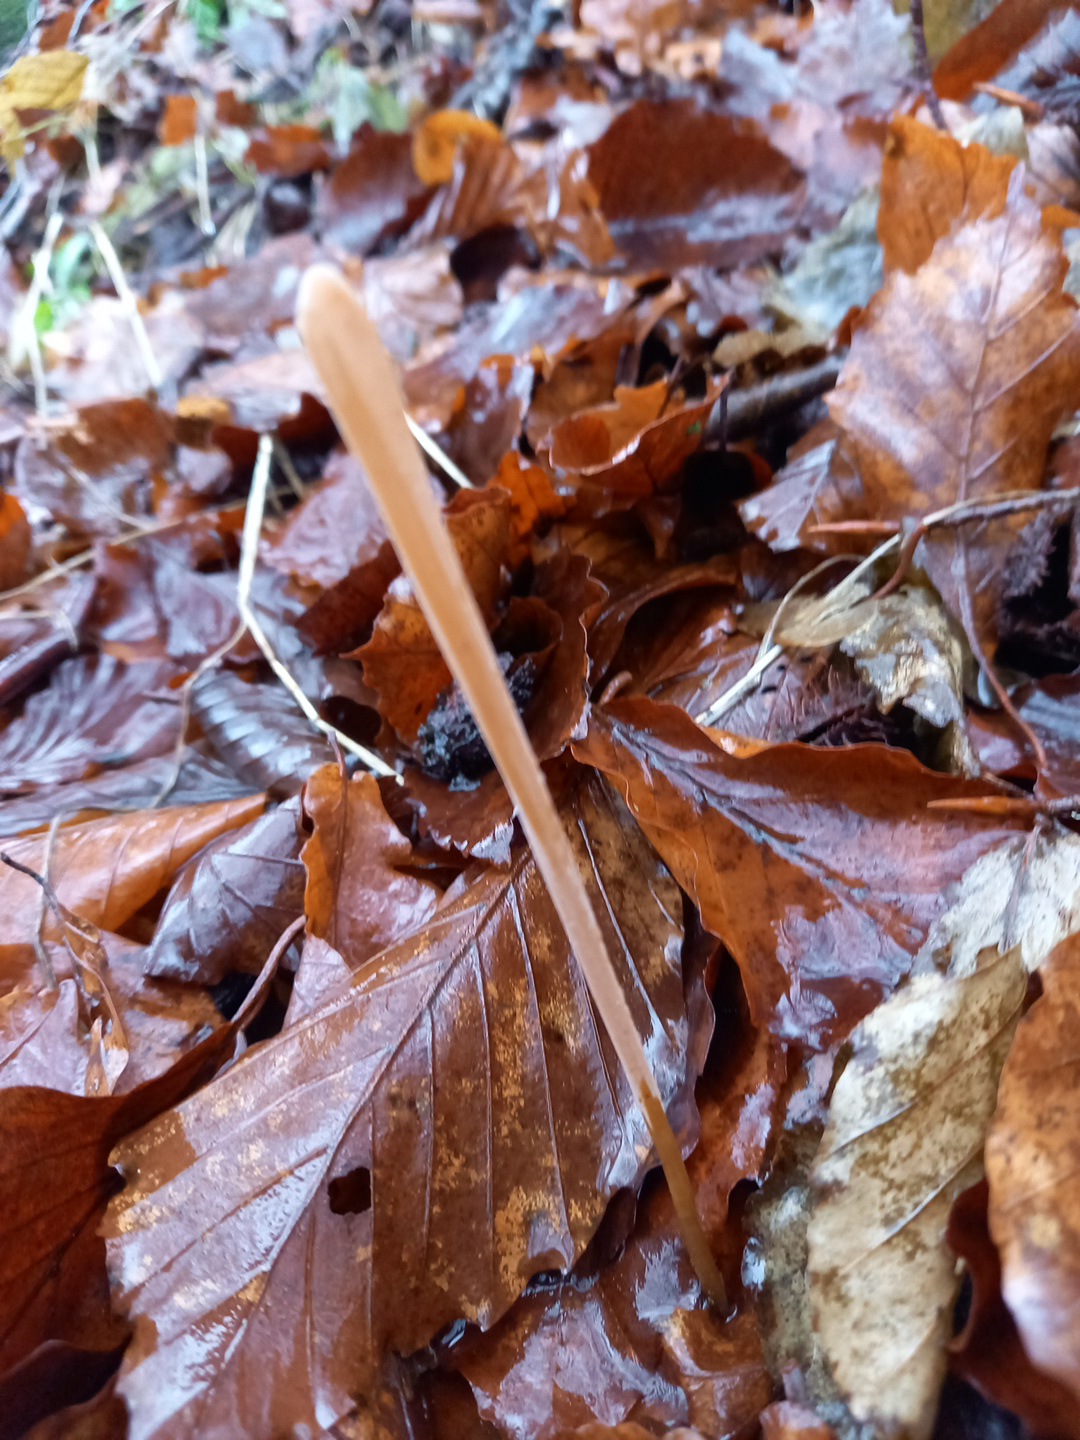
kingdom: Fungi
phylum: Basidiomycota
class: Agaricomycetes
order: Agaricales
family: Typhulaceae
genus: Typhula
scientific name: Typhula fistulosa
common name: pibet rørkølle
